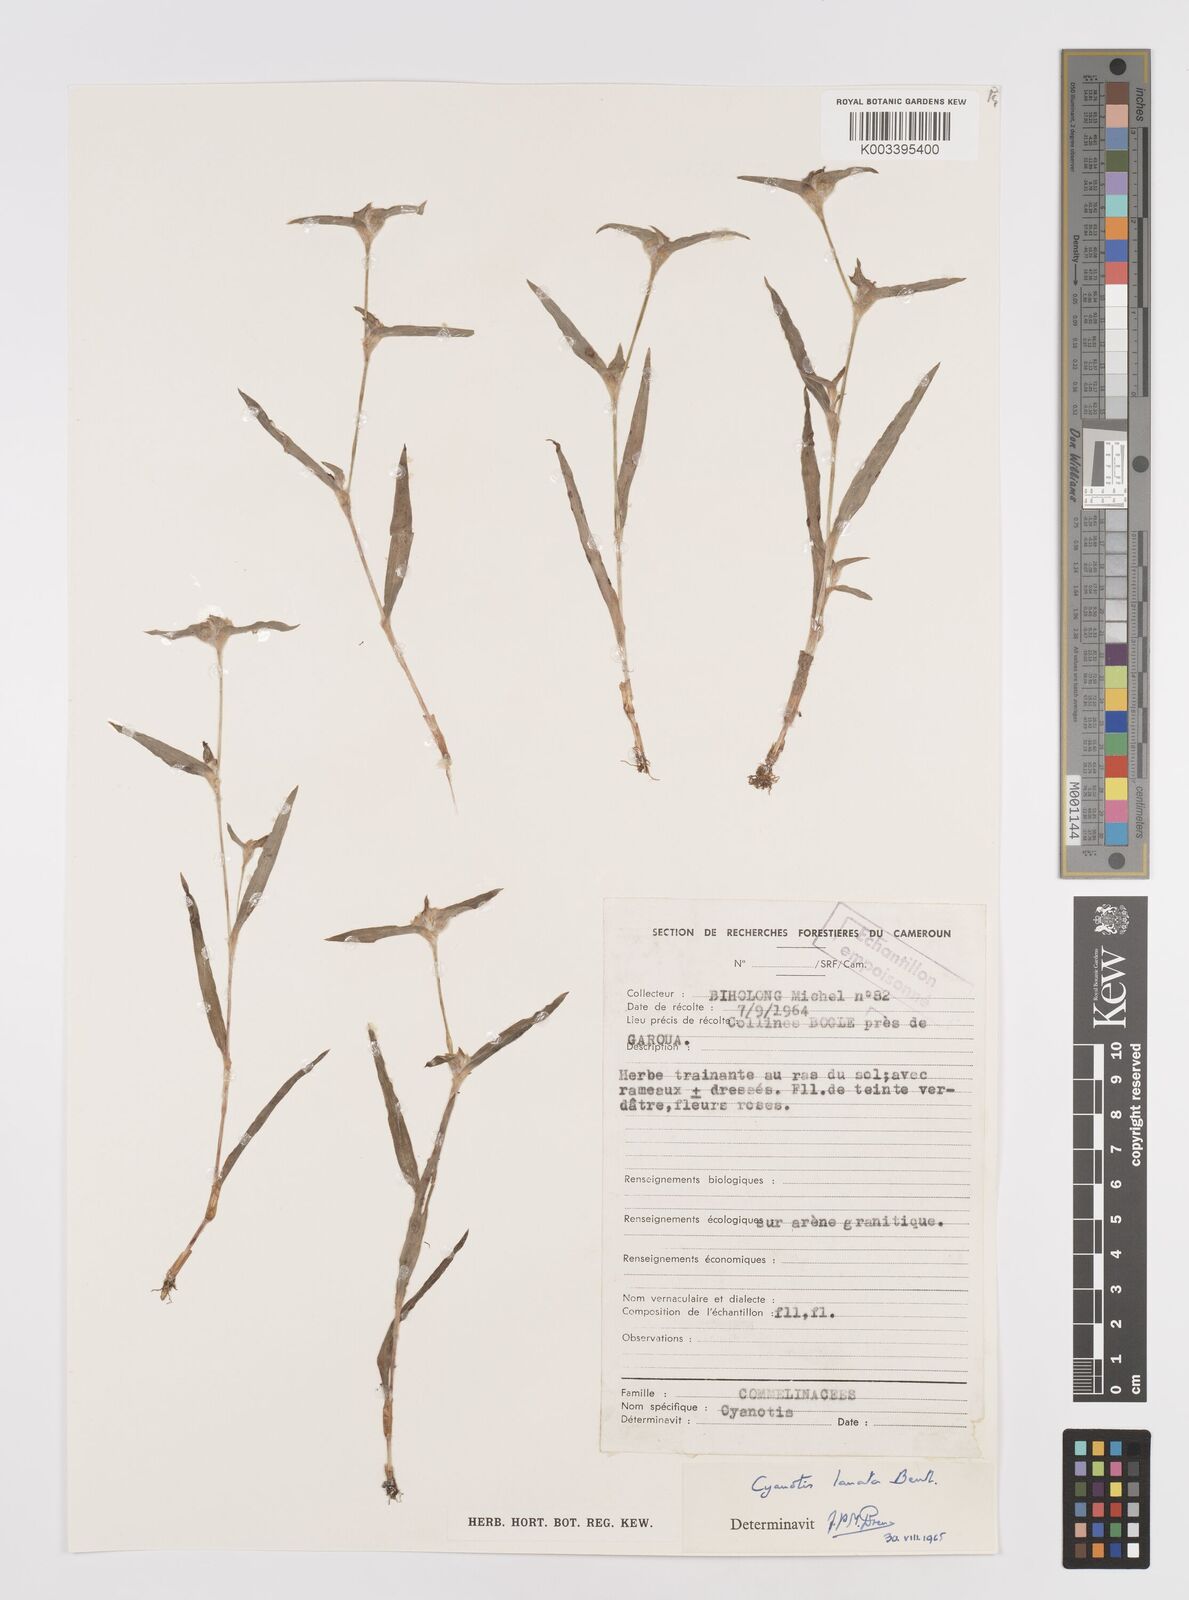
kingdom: Plantae
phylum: Tracheophyta
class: Liliopsida
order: Commelinales
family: Commelinaceae
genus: Cyanotis
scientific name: Cyanotis lanata
